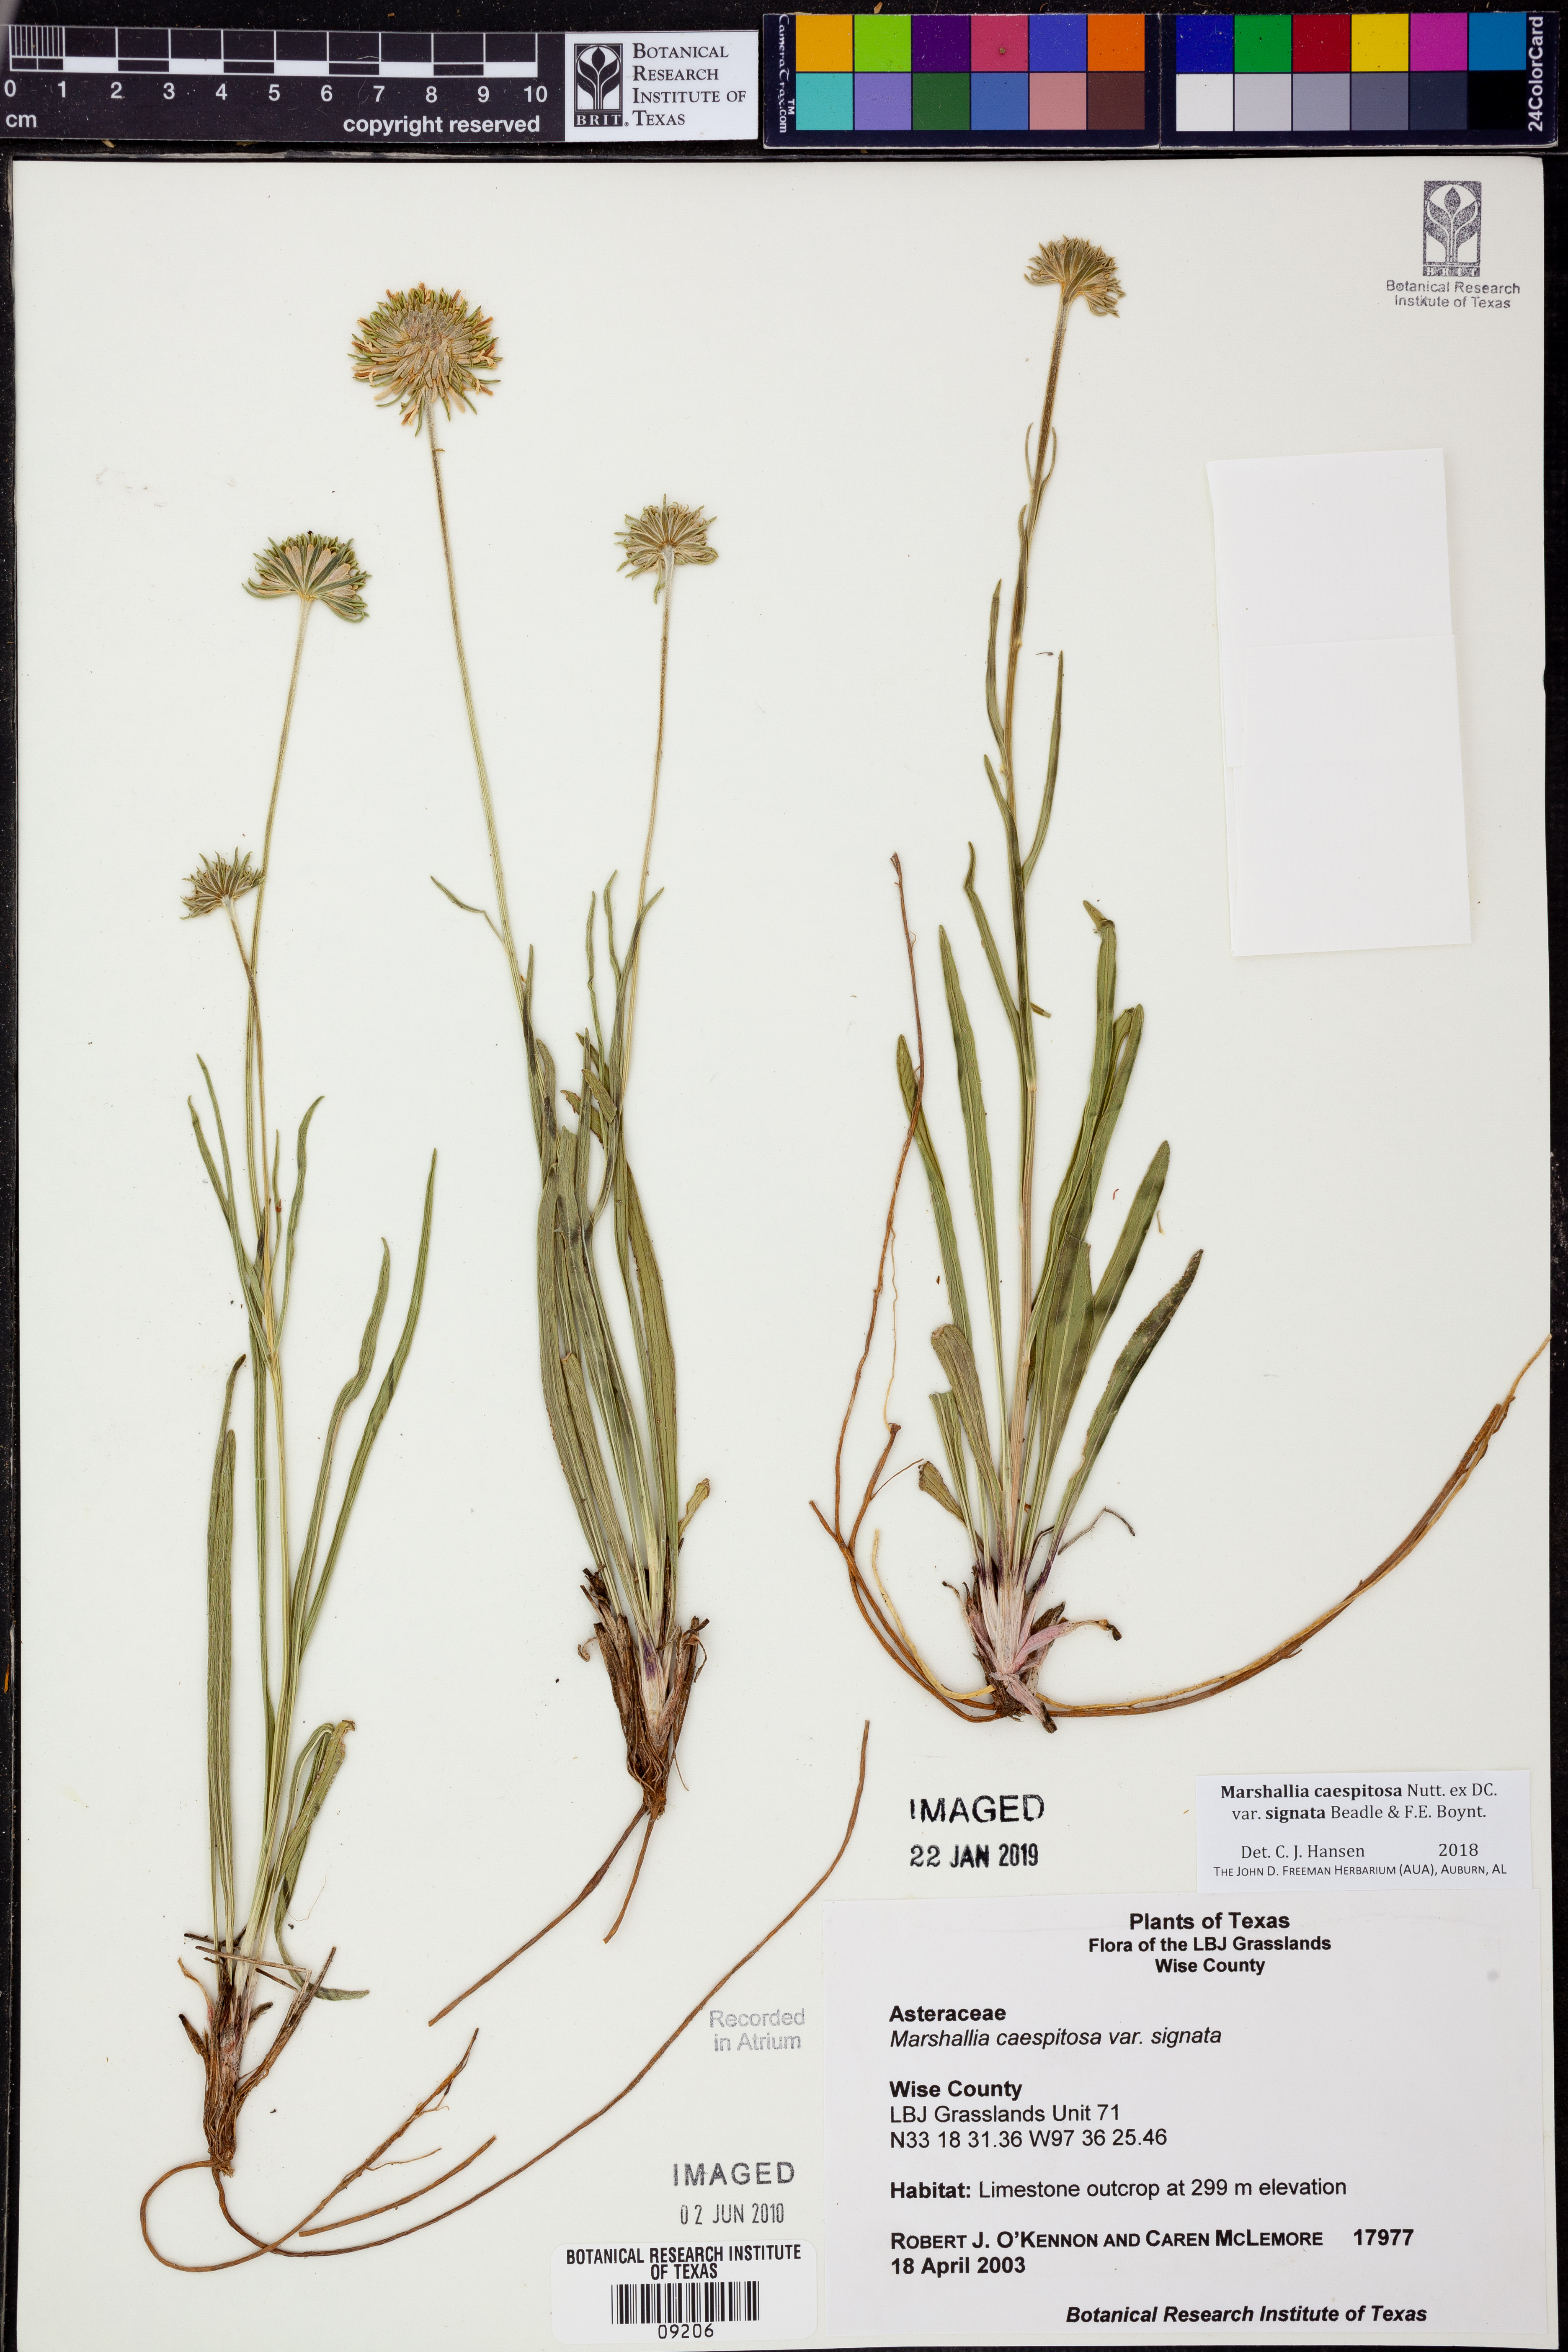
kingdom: Plantae
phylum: Tracheophyta
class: Magnoliopsida
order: Asterales
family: Asteraceae
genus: Marshallia
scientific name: Marshallia caespitosa
